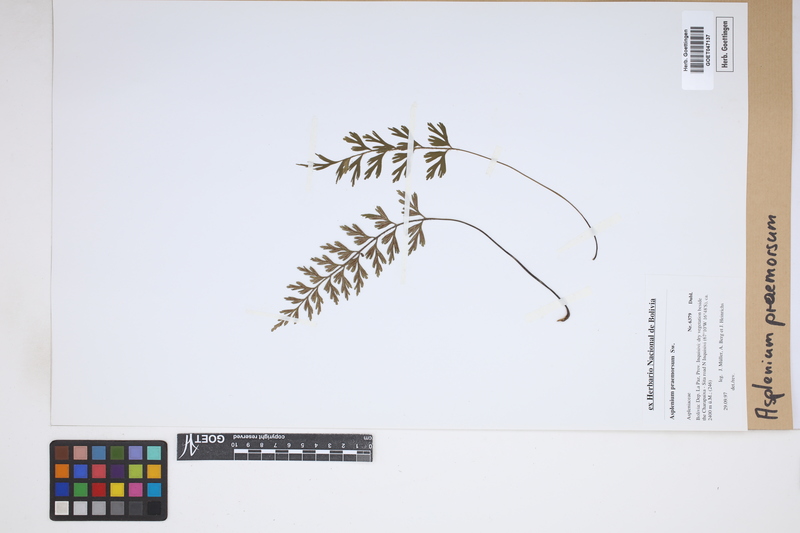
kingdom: Plantae
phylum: Tracheophyta
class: Polypodiopsida
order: Polypodiales
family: Aspleniaceae
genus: Asplenium
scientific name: Asplenium praemorsum
